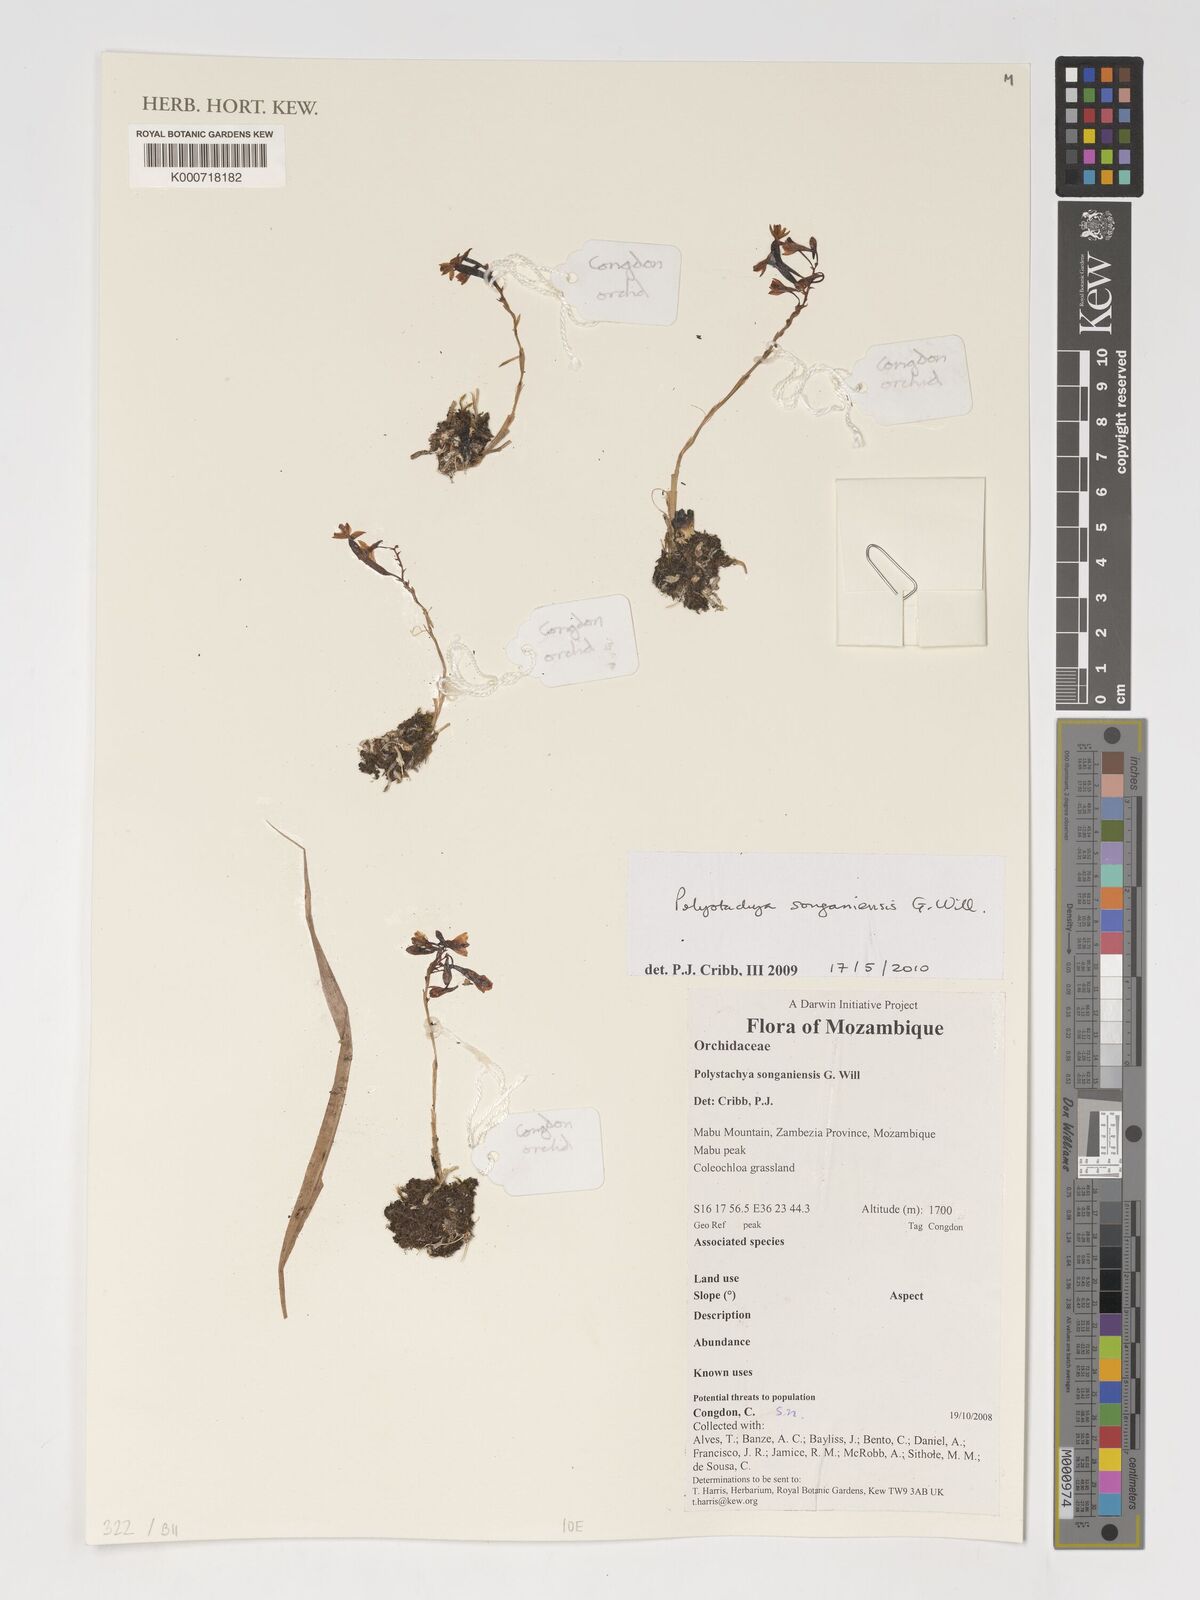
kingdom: Plantae
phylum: Tracheophyta
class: Liliopsida
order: Asparagales
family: Orchidaceae
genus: Polystachya
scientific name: Polystachya songaniensis
